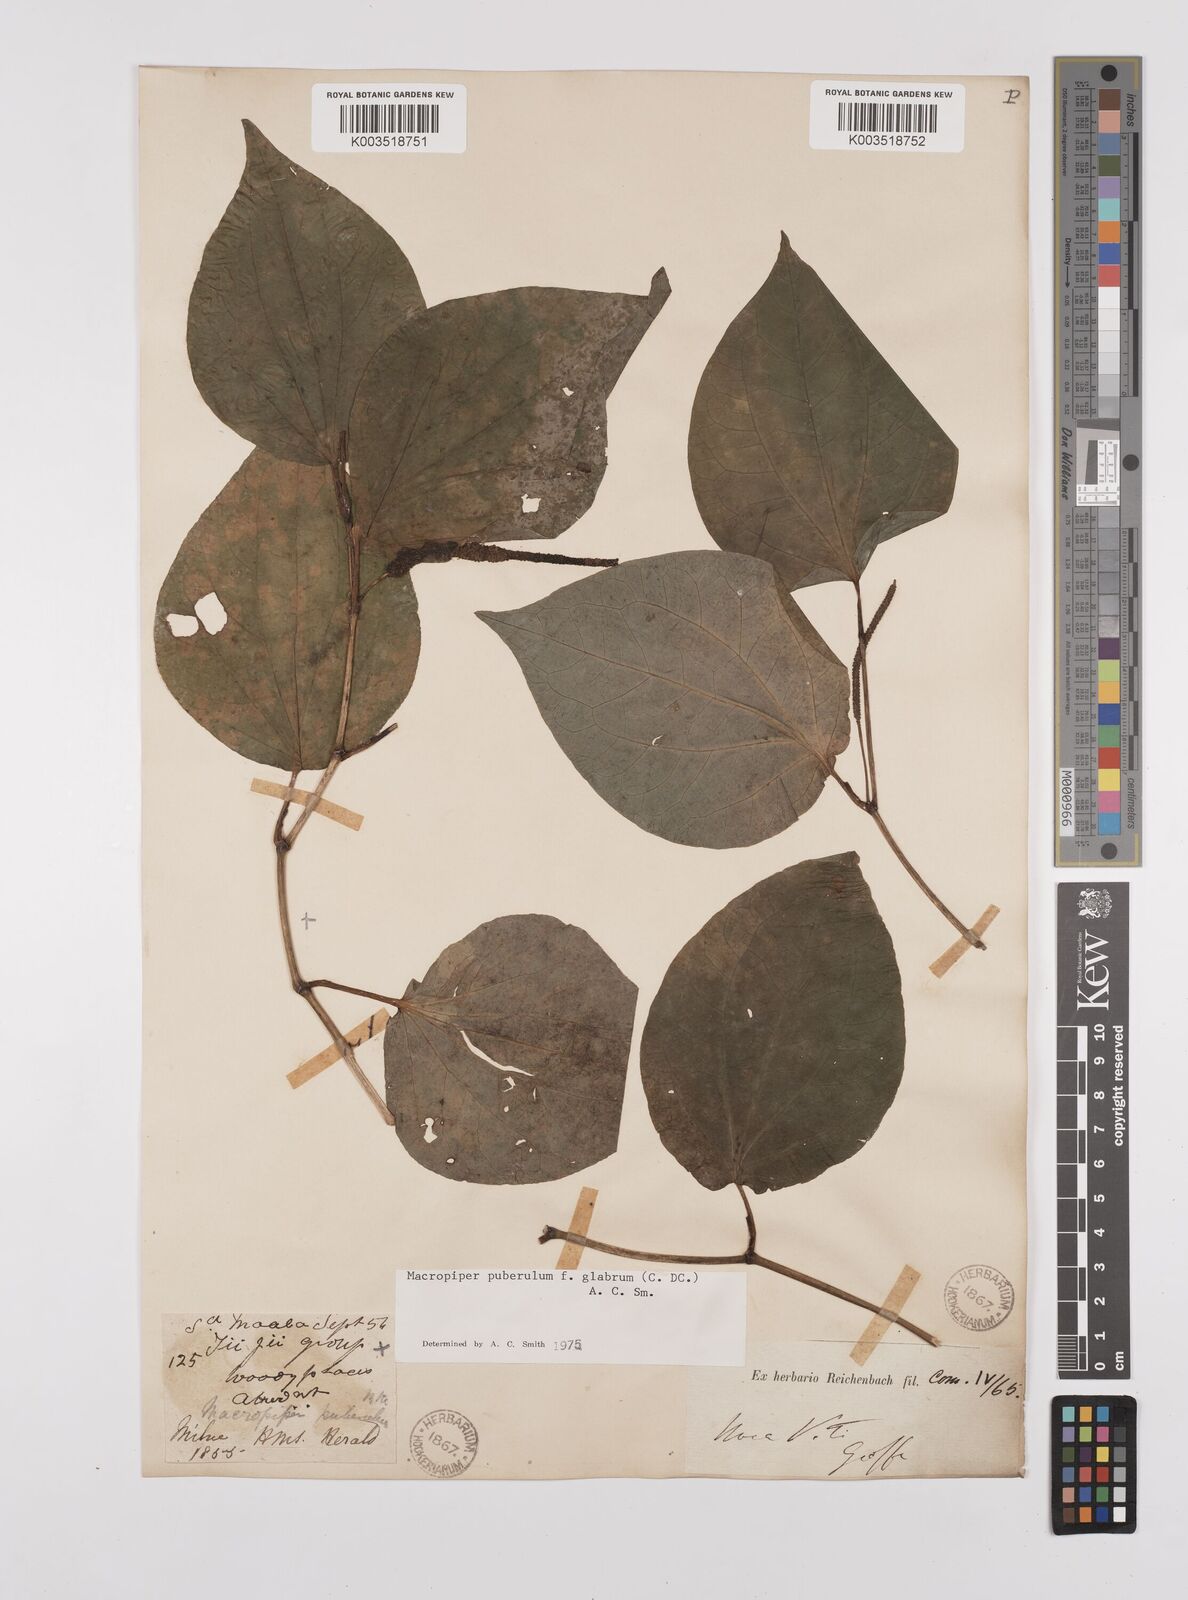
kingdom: Plantae
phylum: Tracheophyta
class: Magnoliopsida
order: Piperales
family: Piperaceae
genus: Macropiper
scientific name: Macropiper puberulum
